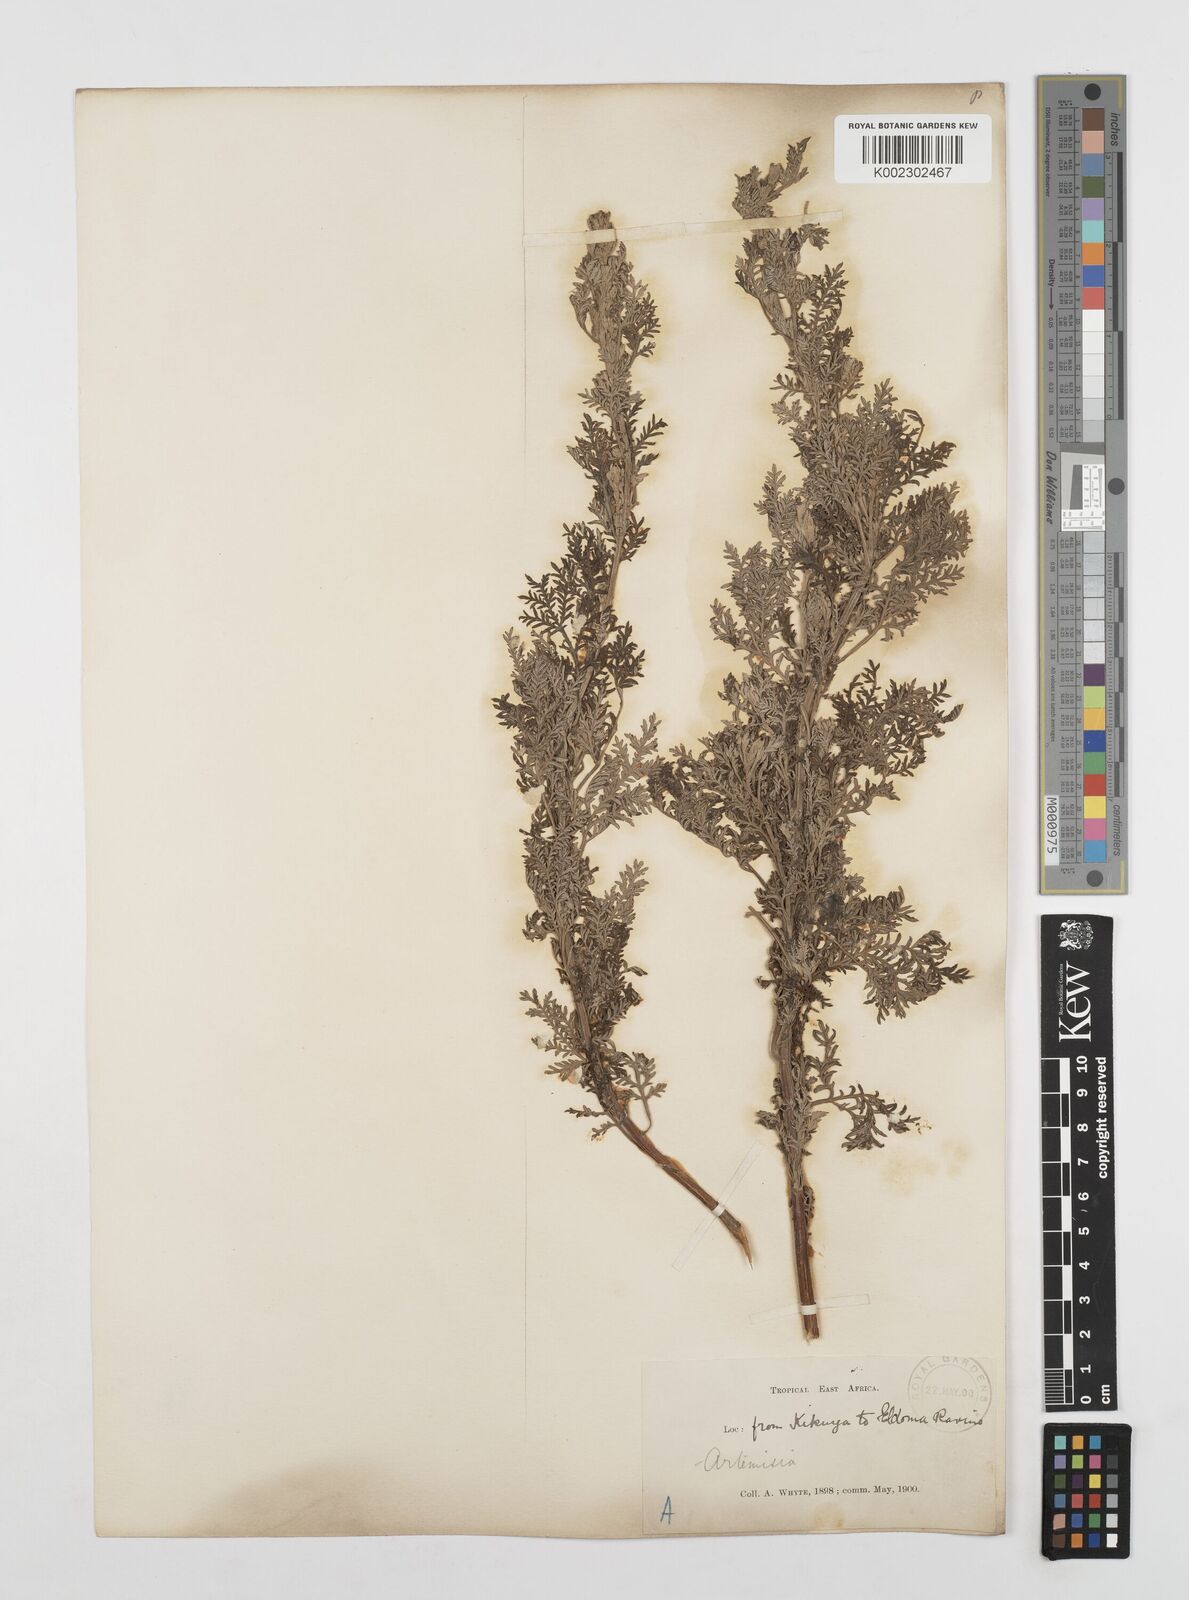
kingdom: Plantae
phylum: Tracheophyta
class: Magnoliopsida
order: Asterales
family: Asteraceae
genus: Artemisia
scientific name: Artemisia afra
